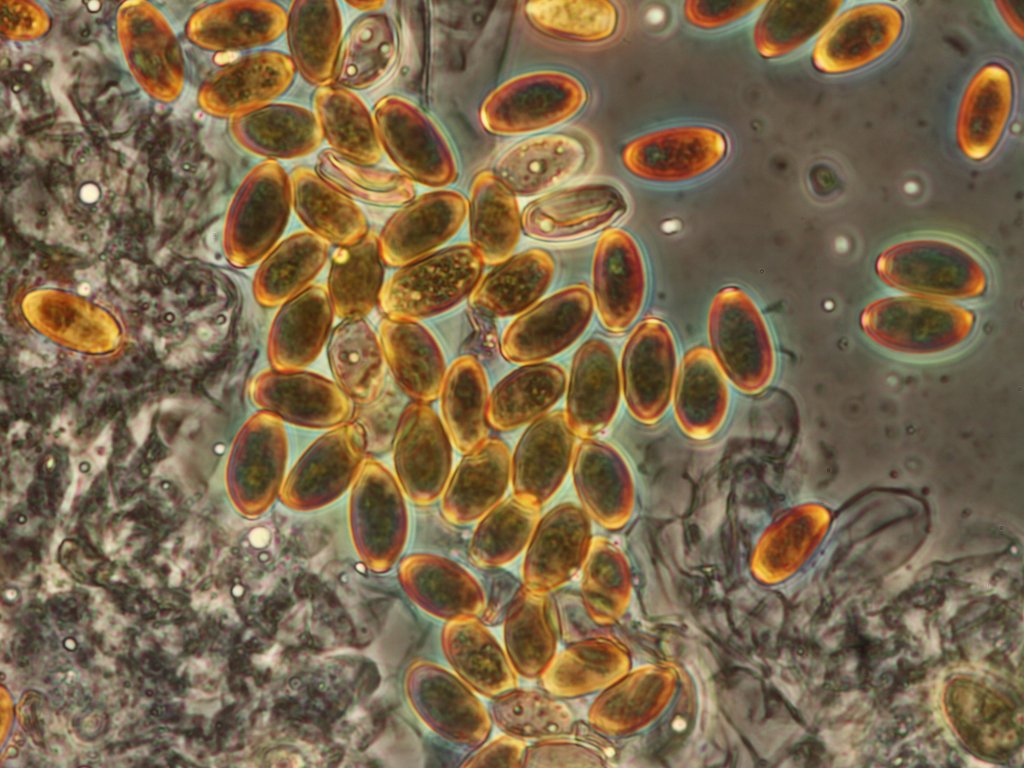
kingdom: Fungi
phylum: Basidiomycota
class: Agaricomycetes
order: Agaricales
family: Bolbitiaceae
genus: Conocybe
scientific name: Conocybe apala
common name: køllestokket keglehat
